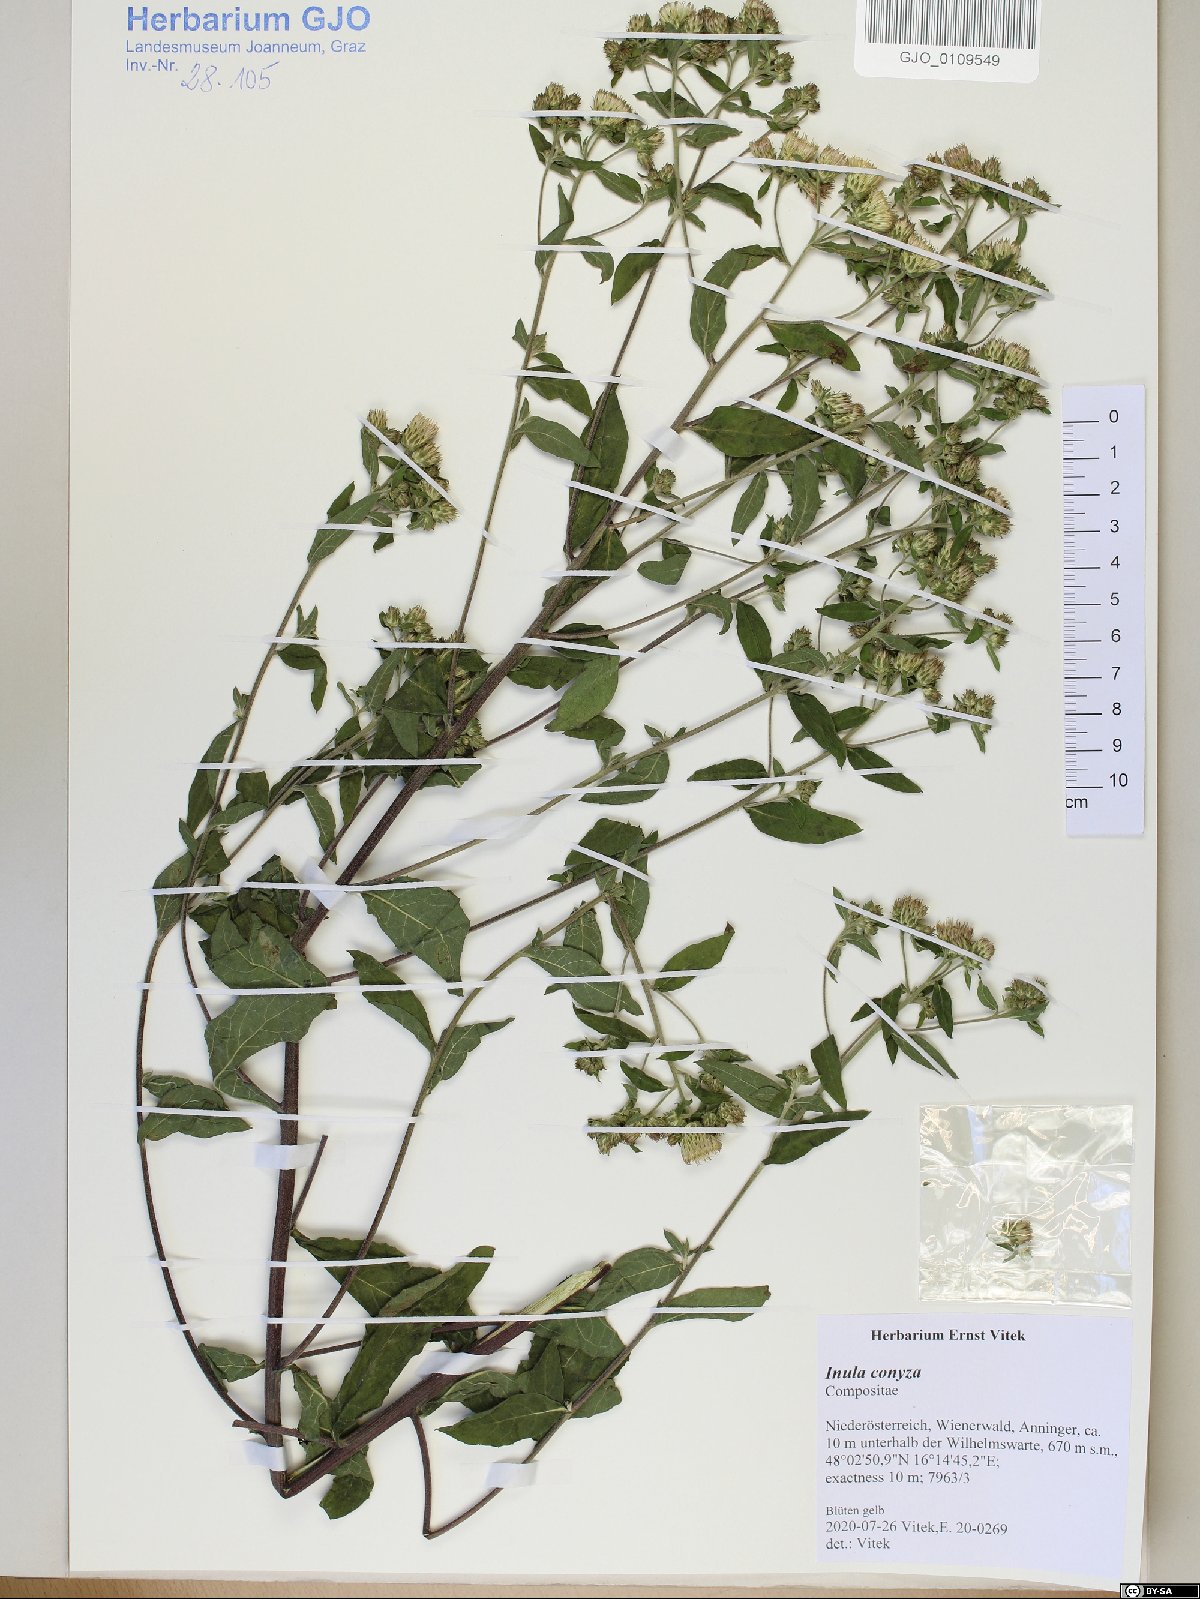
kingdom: Plantae
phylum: Tracheophyta
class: Magnoliopsida
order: Asterales
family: Asteraceae
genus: Pentanema
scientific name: Pentanema squarrosum
